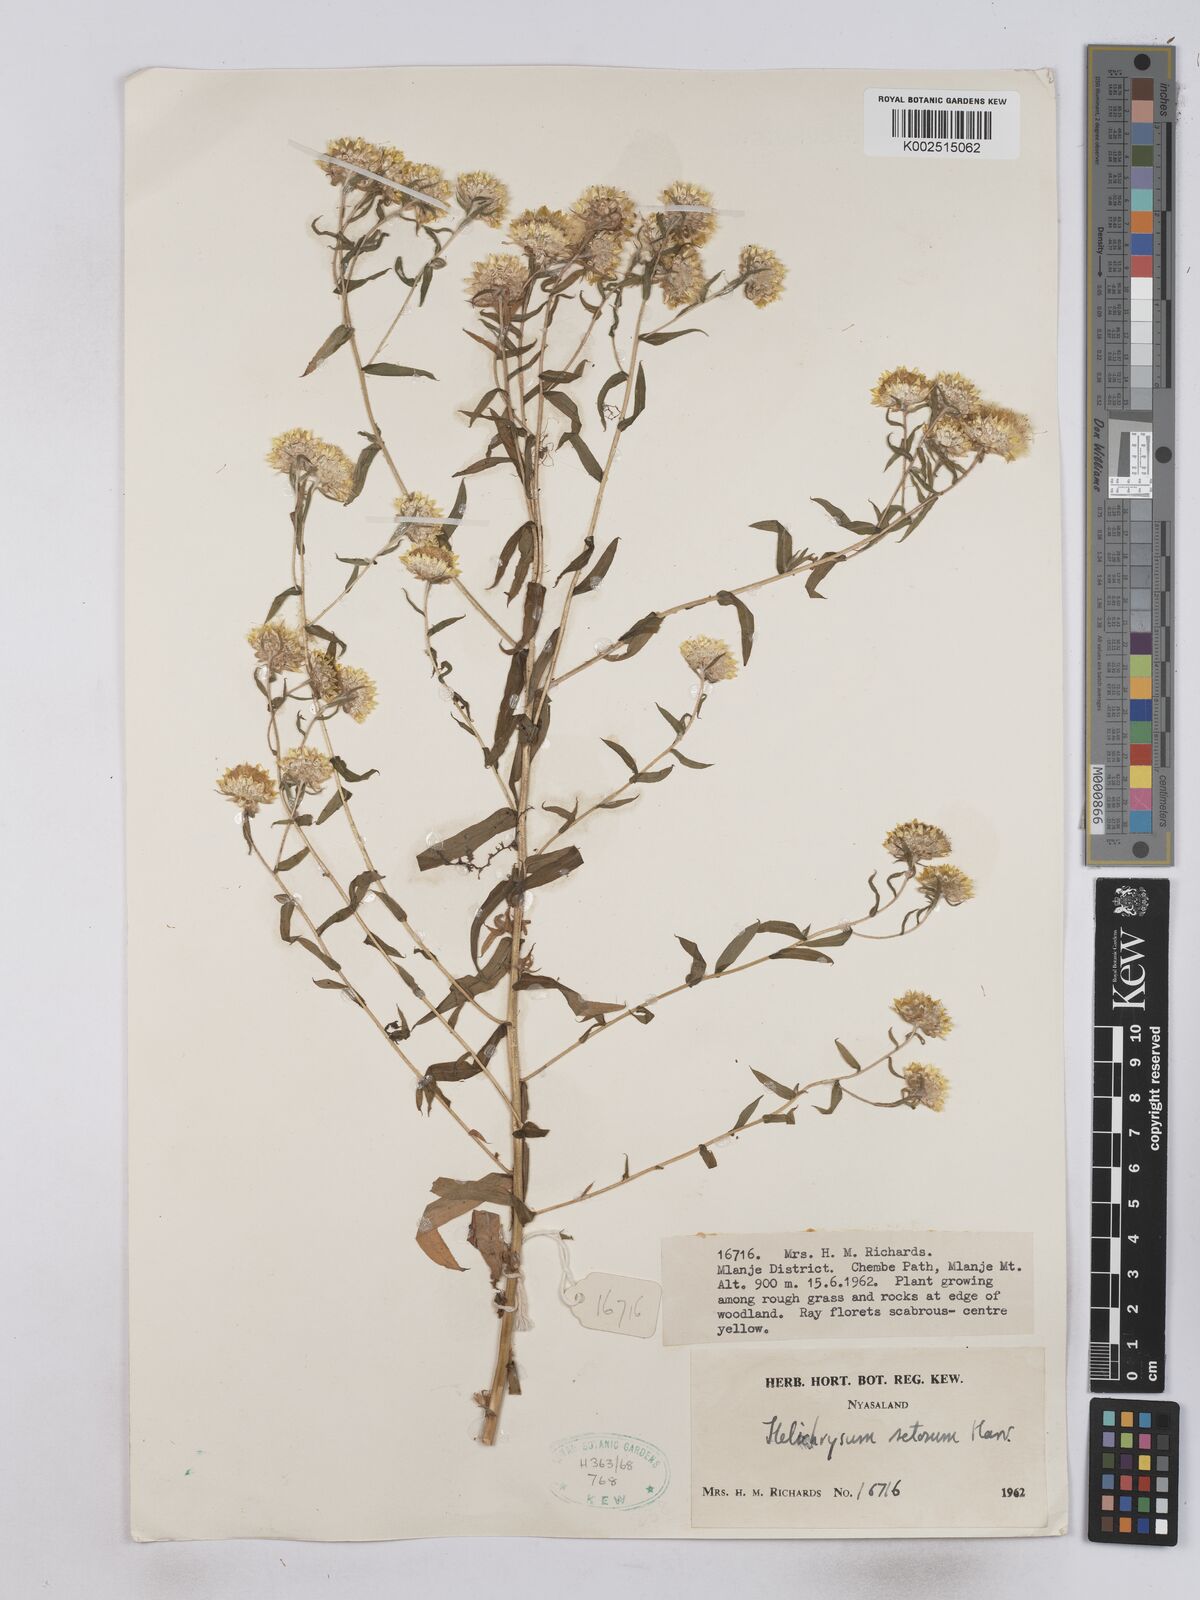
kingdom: Plantae
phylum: Tracheophyta
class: Magnoliopsida
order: Asterales
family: Asteraceae
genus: Helichrysum
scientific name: Helichrysum setosum
